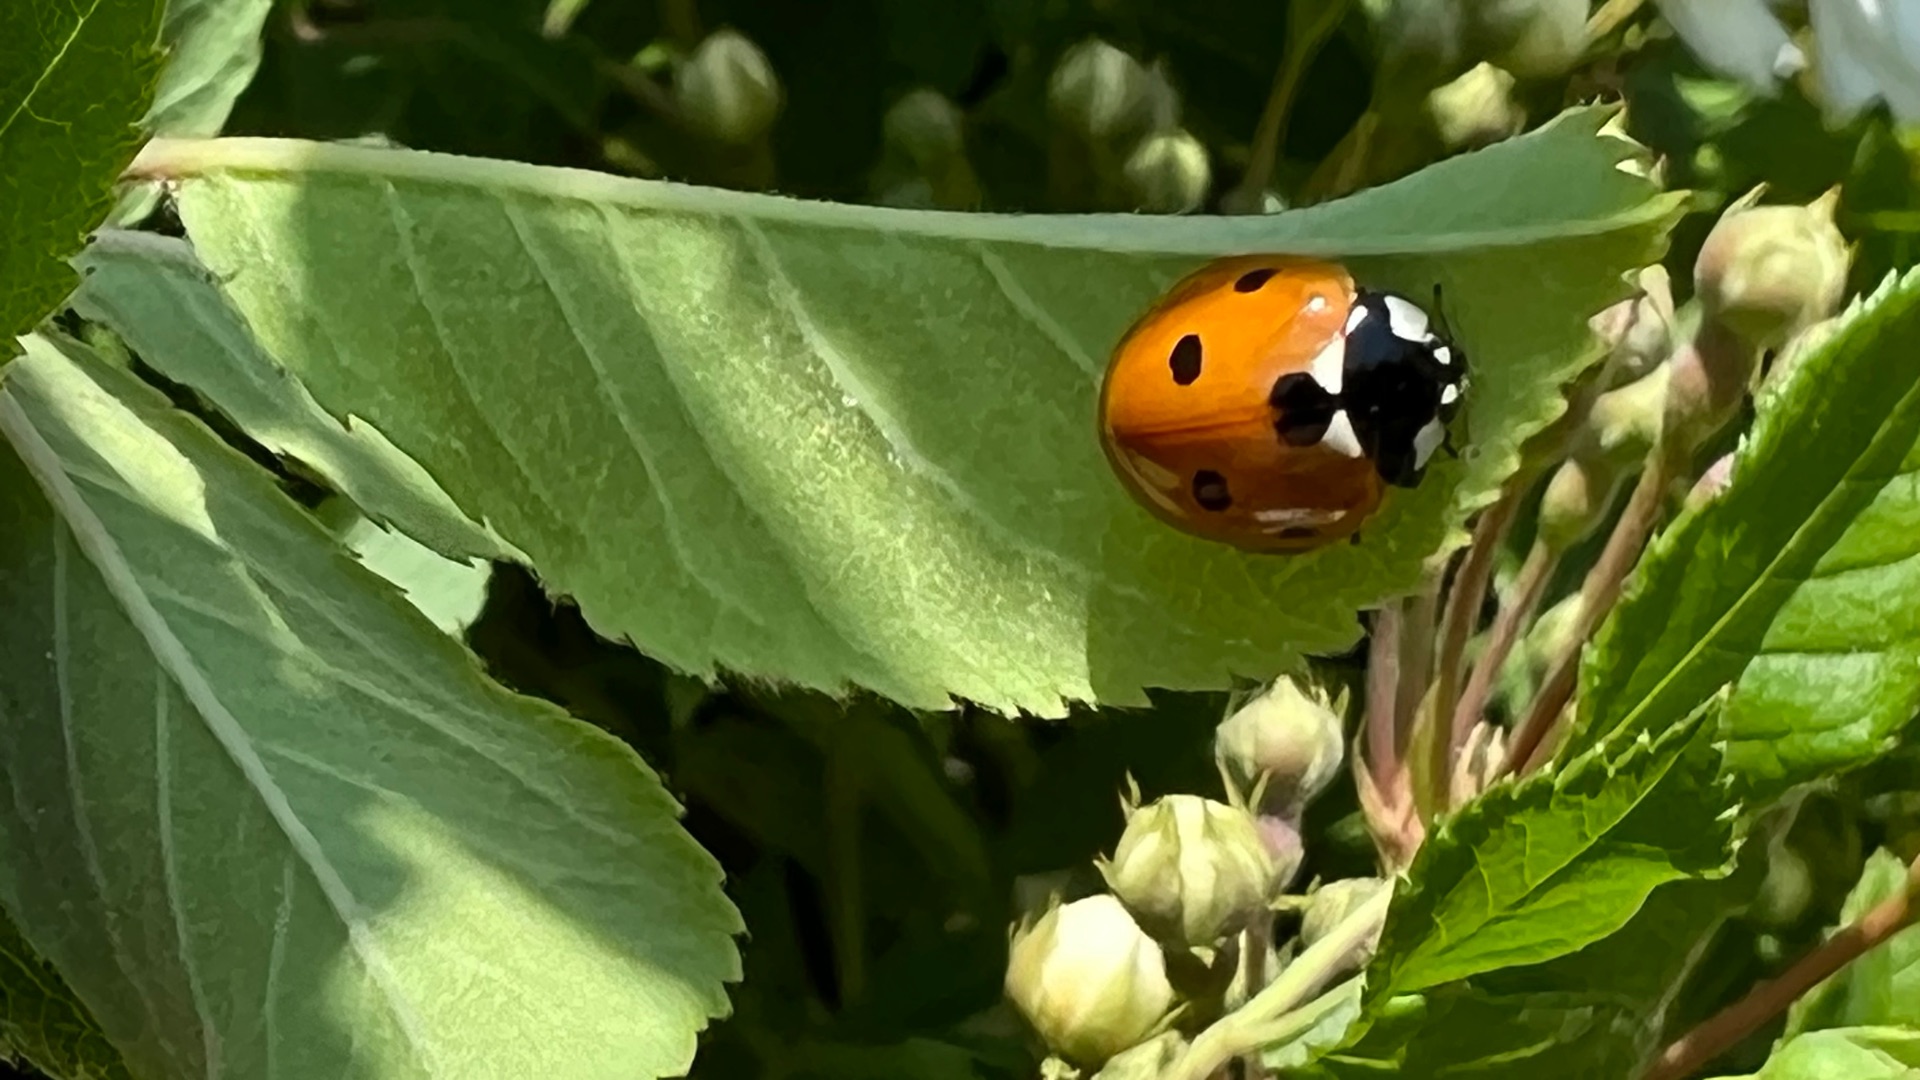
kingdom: Animalia
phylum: Arthropoda
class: Insecta
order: Coleoptera
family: Coccinellidae
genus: Coccinella
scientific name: Coccinella septempunctata
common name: Syvplettet mariehøne
